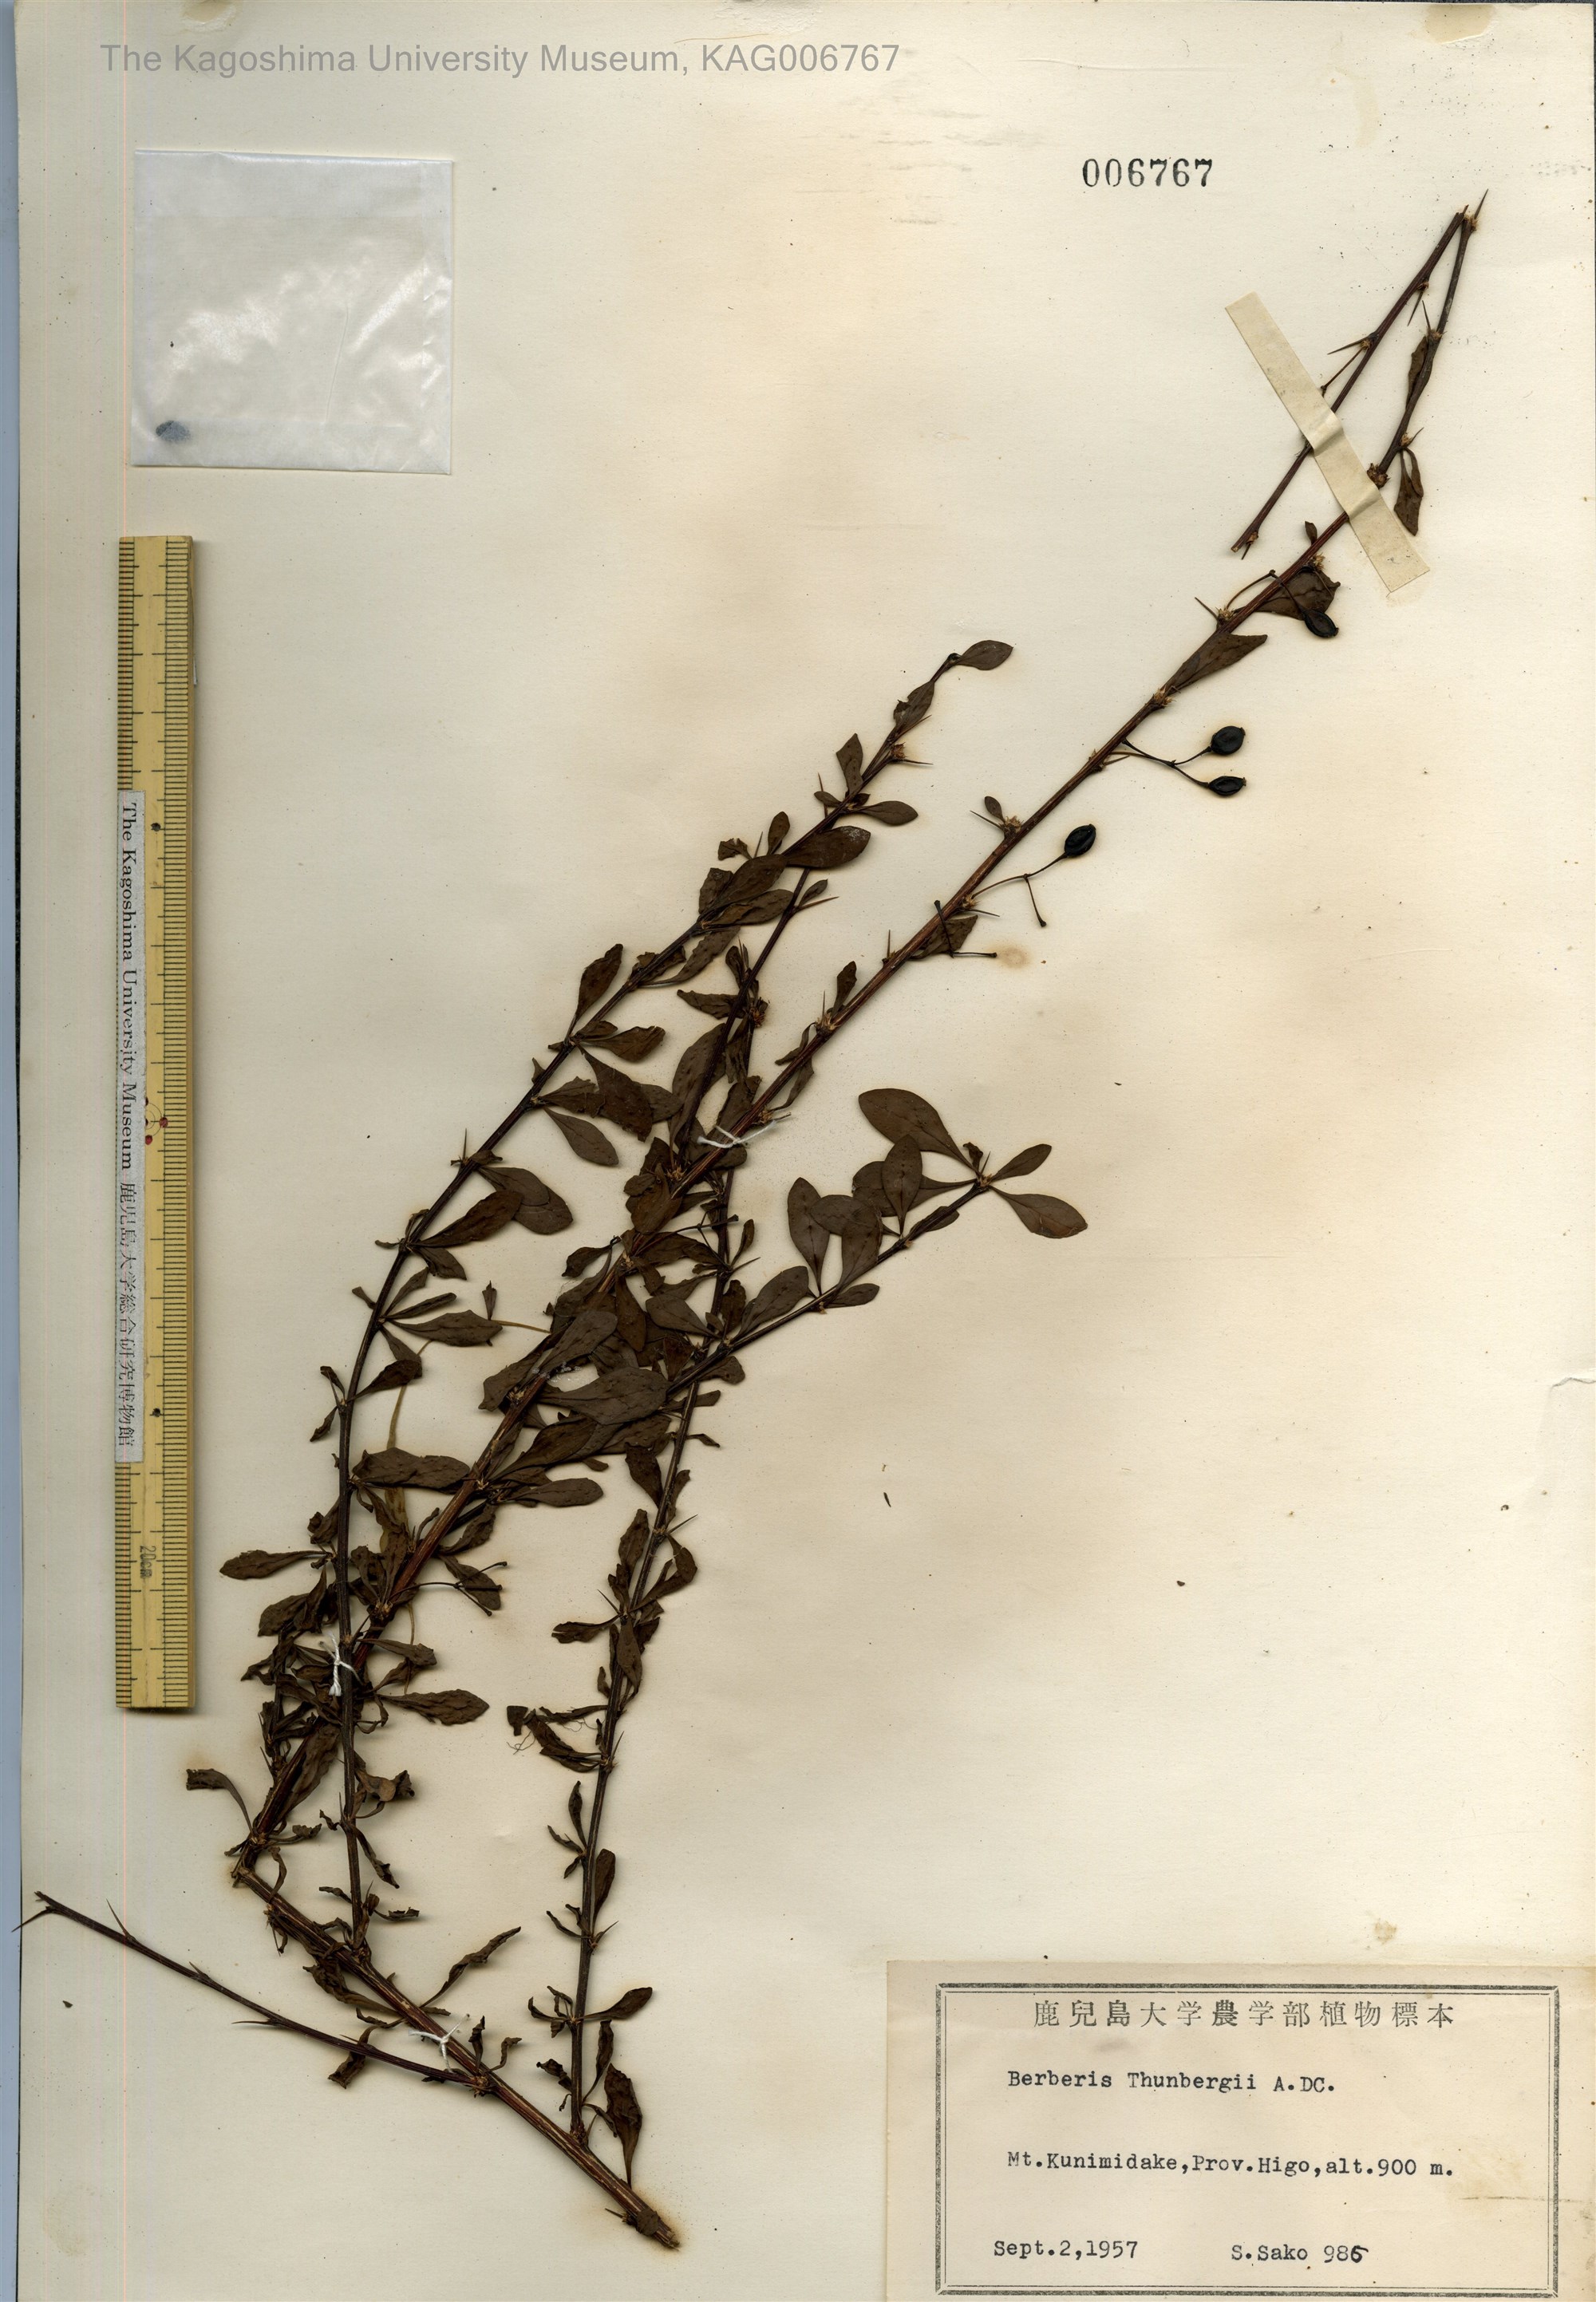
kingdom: Plantae
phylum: Tracheophyta
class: Magnoliopsida
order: Ranunculales
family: Berberidaceae
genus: Berberis
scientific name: Berberis thunbergii
